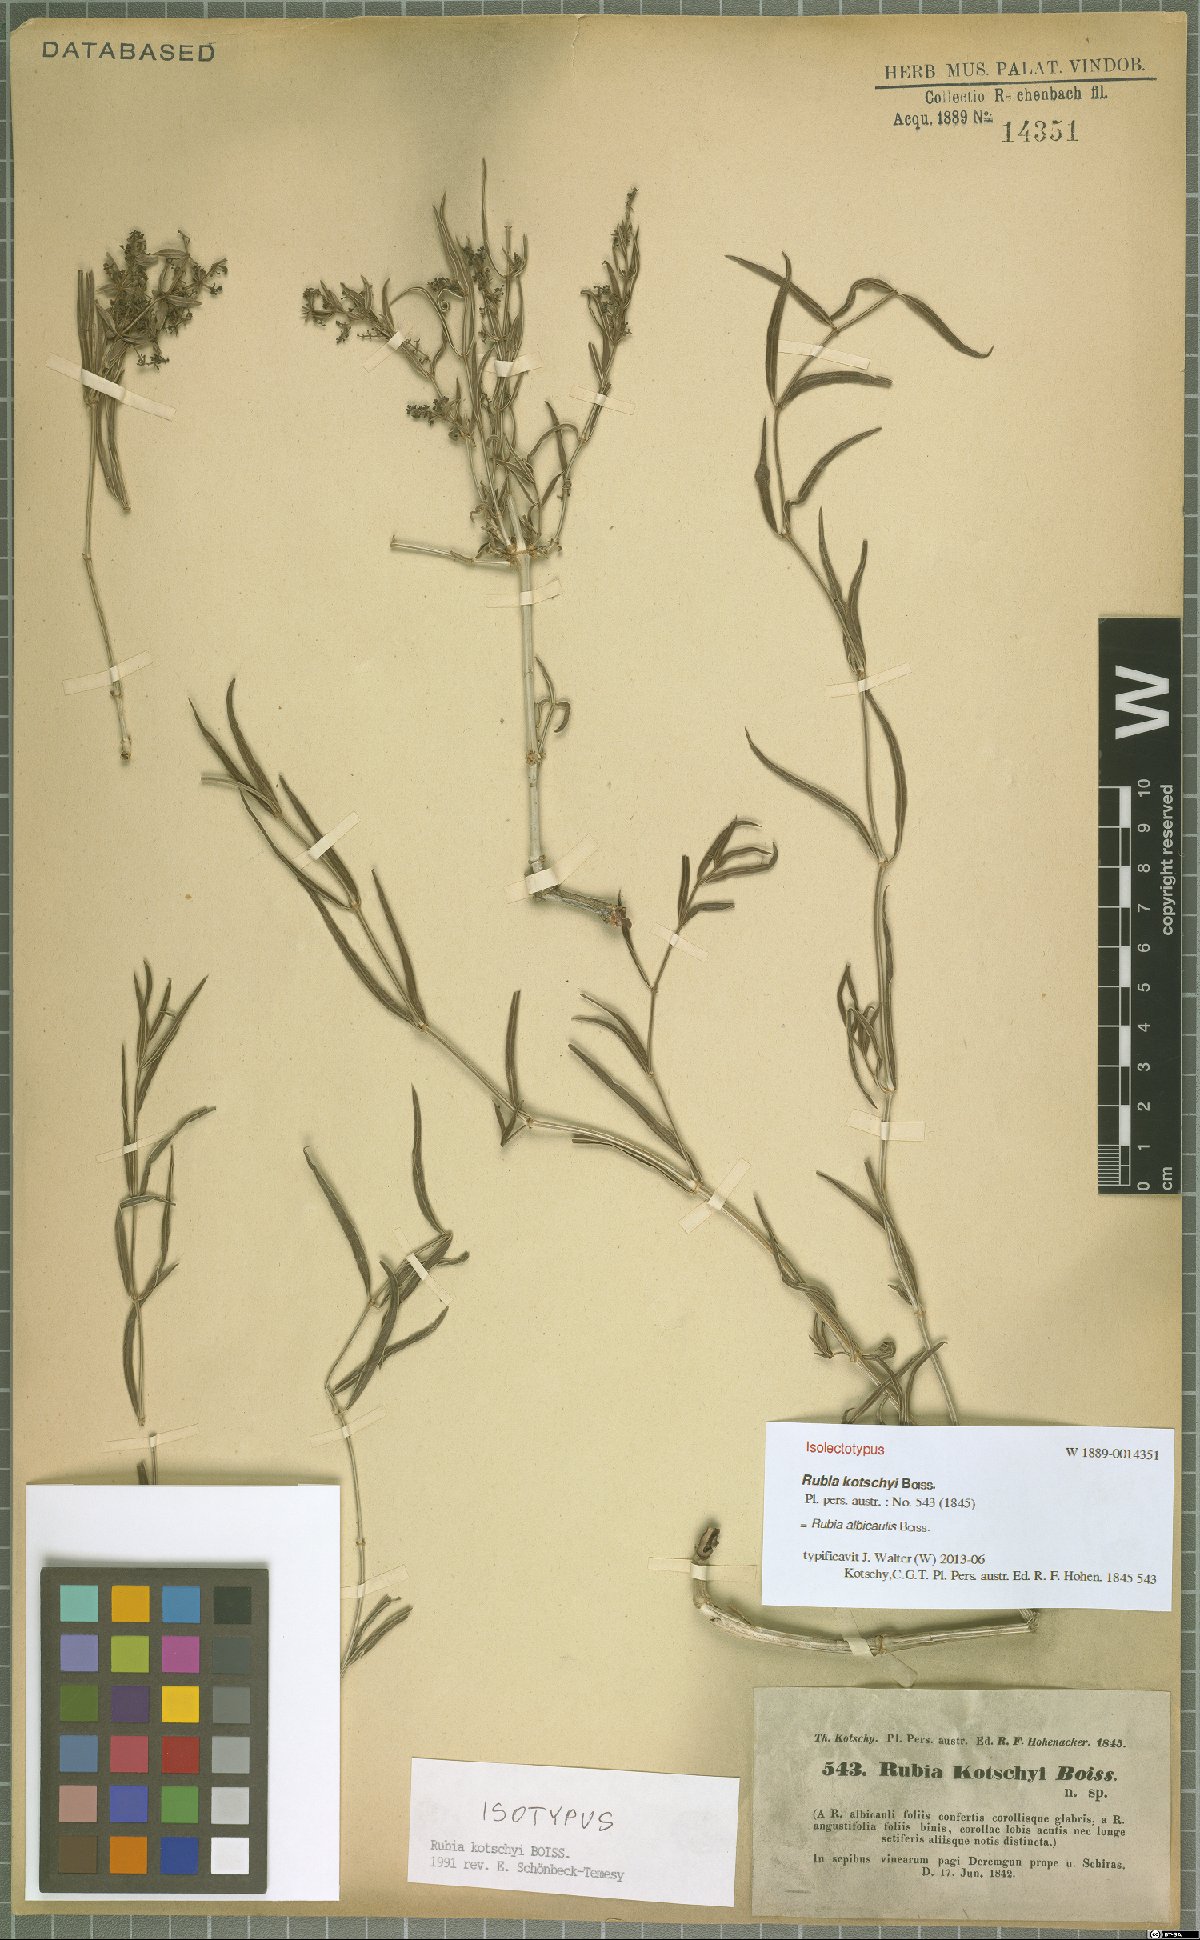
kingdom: Plantae
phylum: Tracheophyta
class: Magnoliopsida
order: Gentianales
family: Rubiaceae
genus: Rubia
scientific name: Rubia albicaulis
